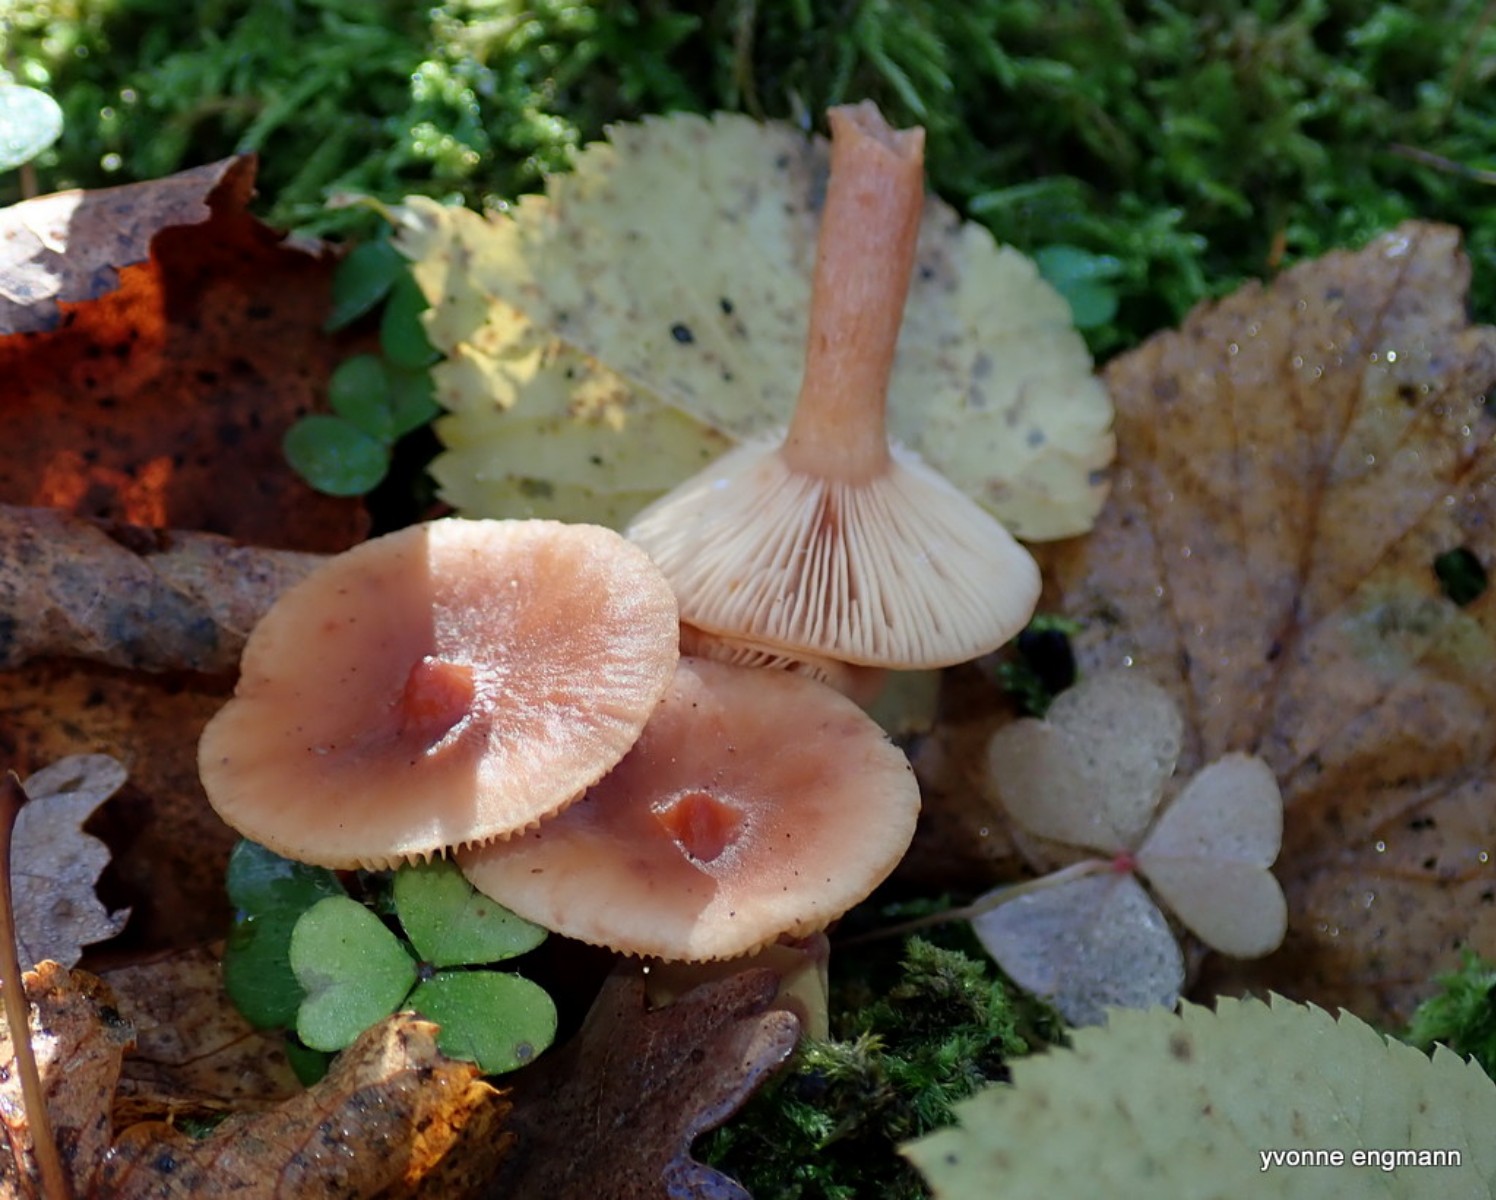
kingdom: Fungi
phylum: Basidiomycota
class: Agaricomycetes
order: Russulales
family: Russulaceae
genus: Lactarius
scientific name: Lactarius tabidus
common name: rynket mælkehat
